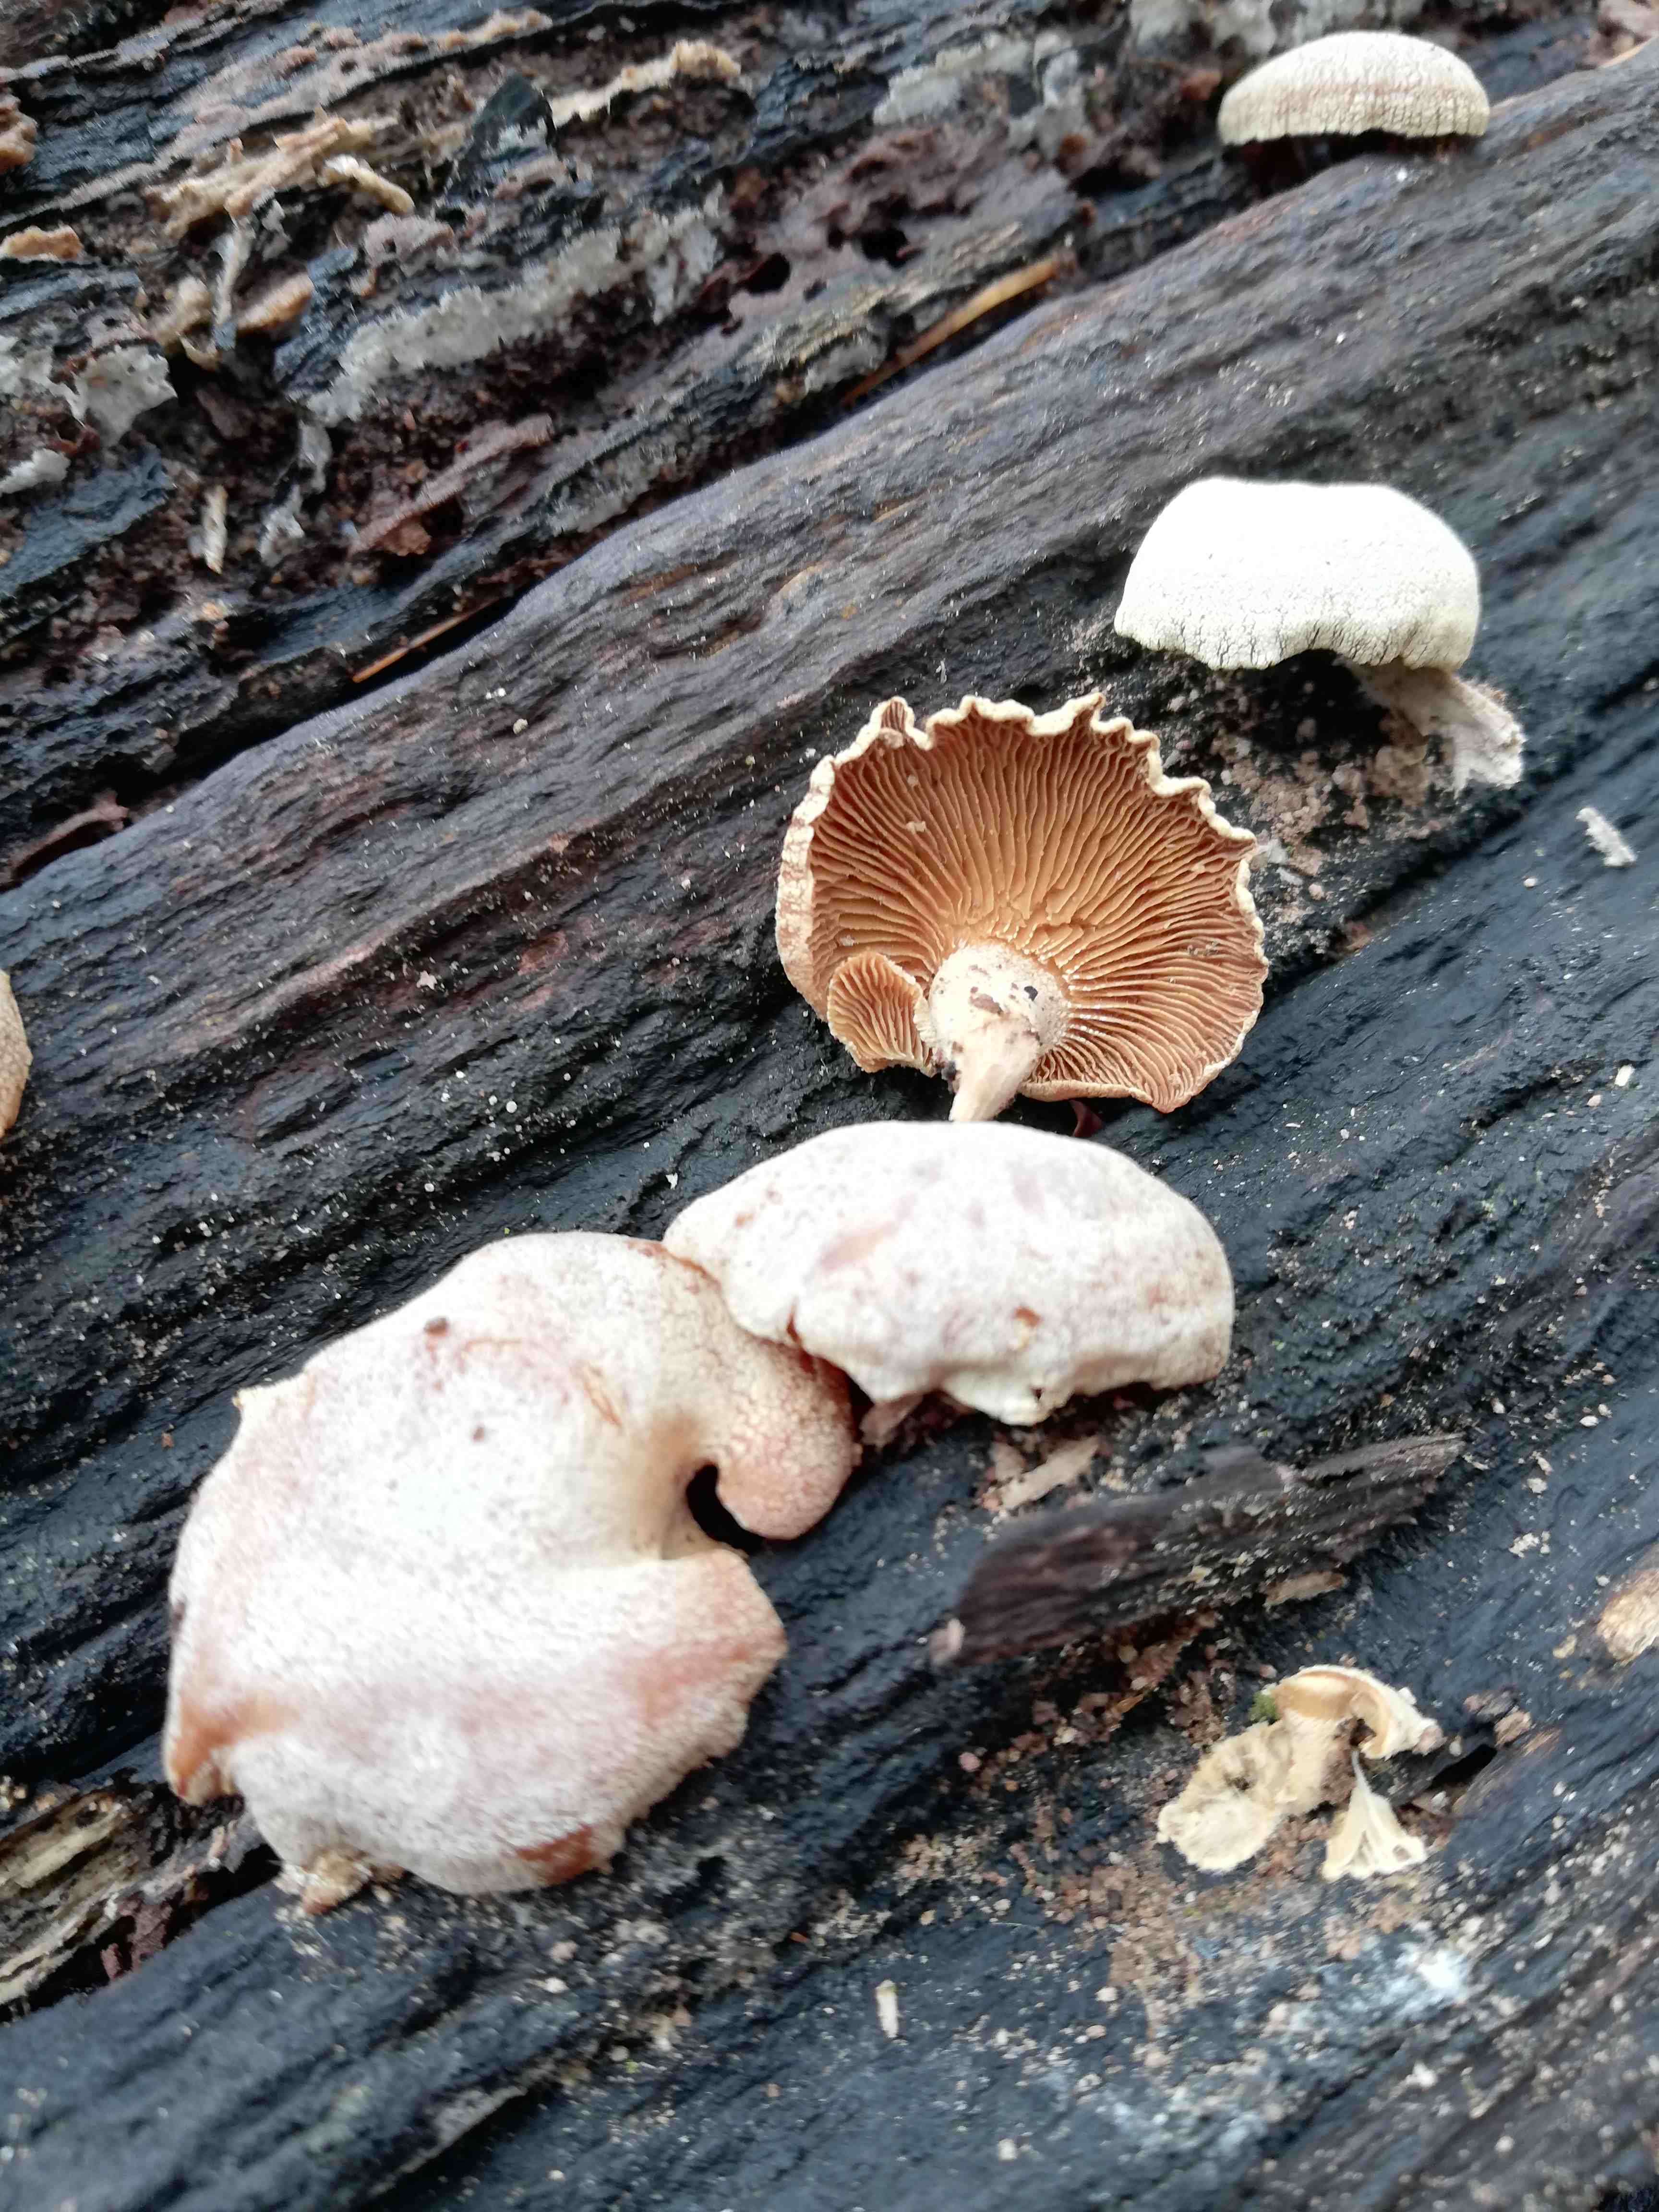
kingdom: Fungi
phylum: Basidiomycota
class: Agaricomycetes
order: Agaricales
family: Mycenaceae
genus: Panellus
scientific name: Panellus stipticus
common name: kliddet epaulethat
